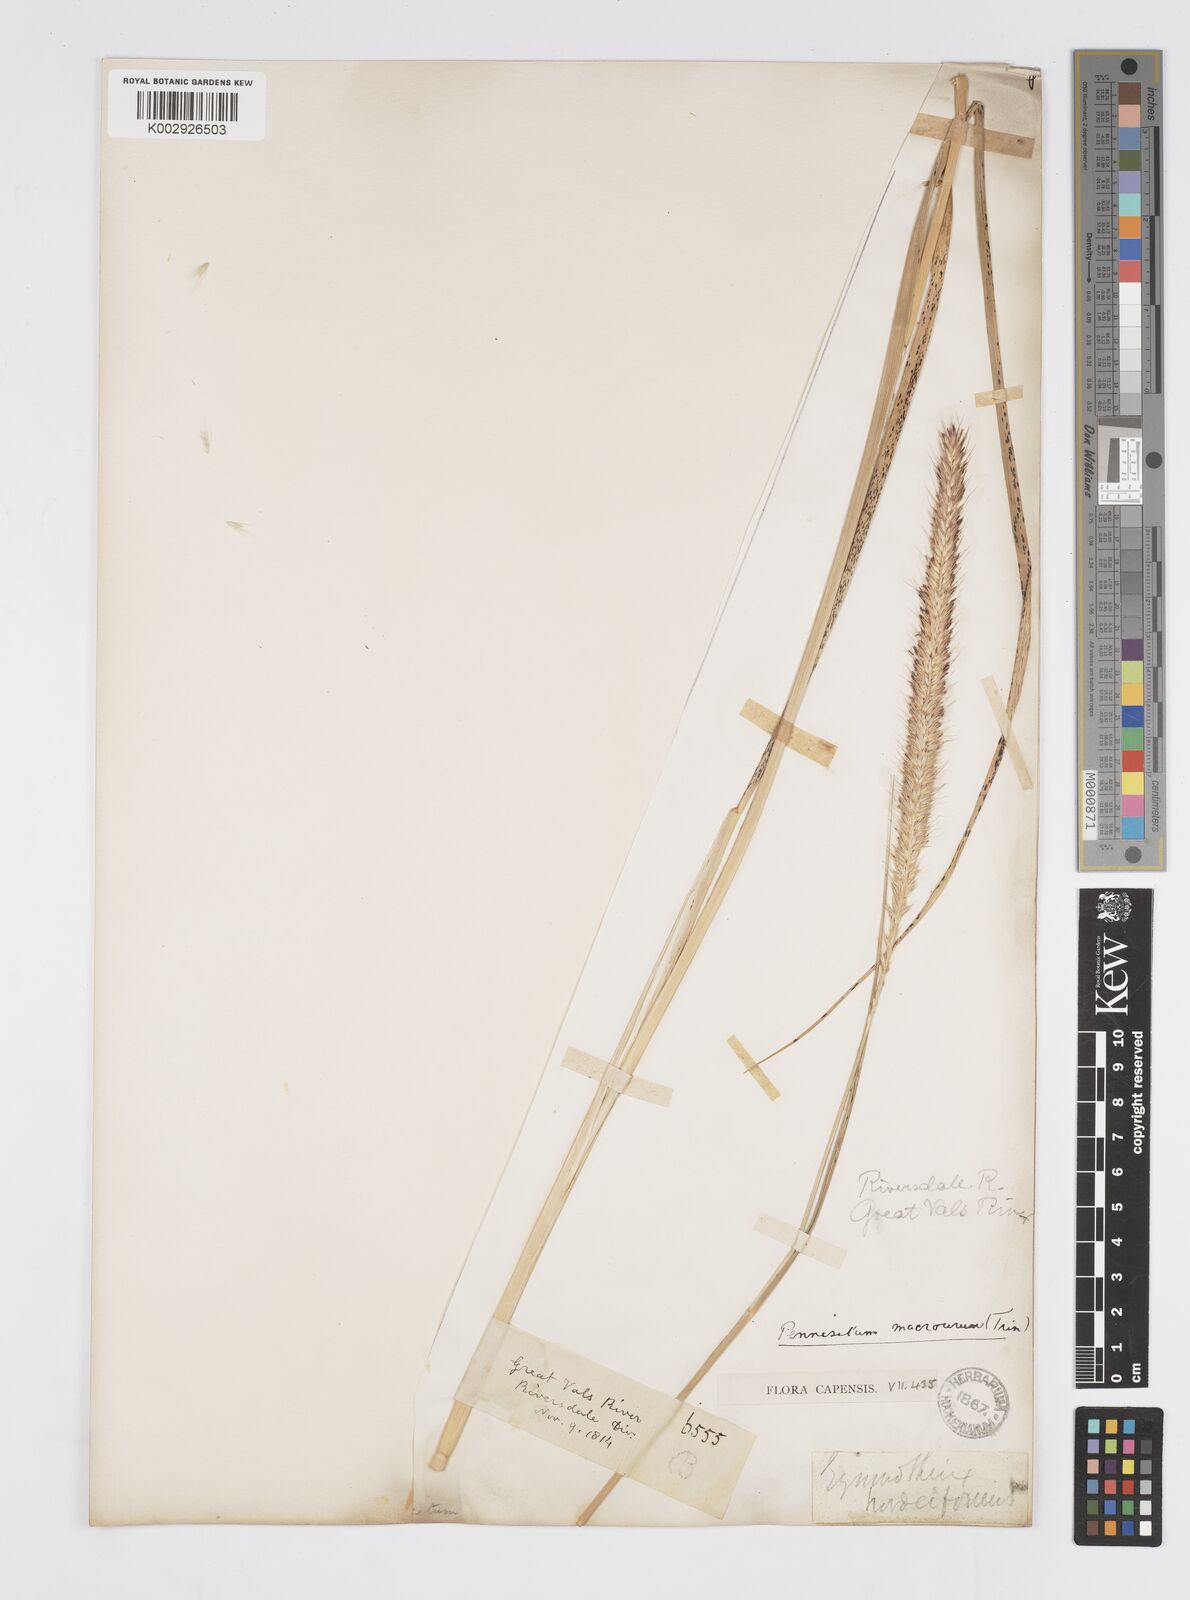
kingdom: Plantae
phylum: Tracheophyta
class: Liliopsida
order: Poales
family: Poaceae
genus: Cenchrus
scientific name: Cenchrus caudatus
